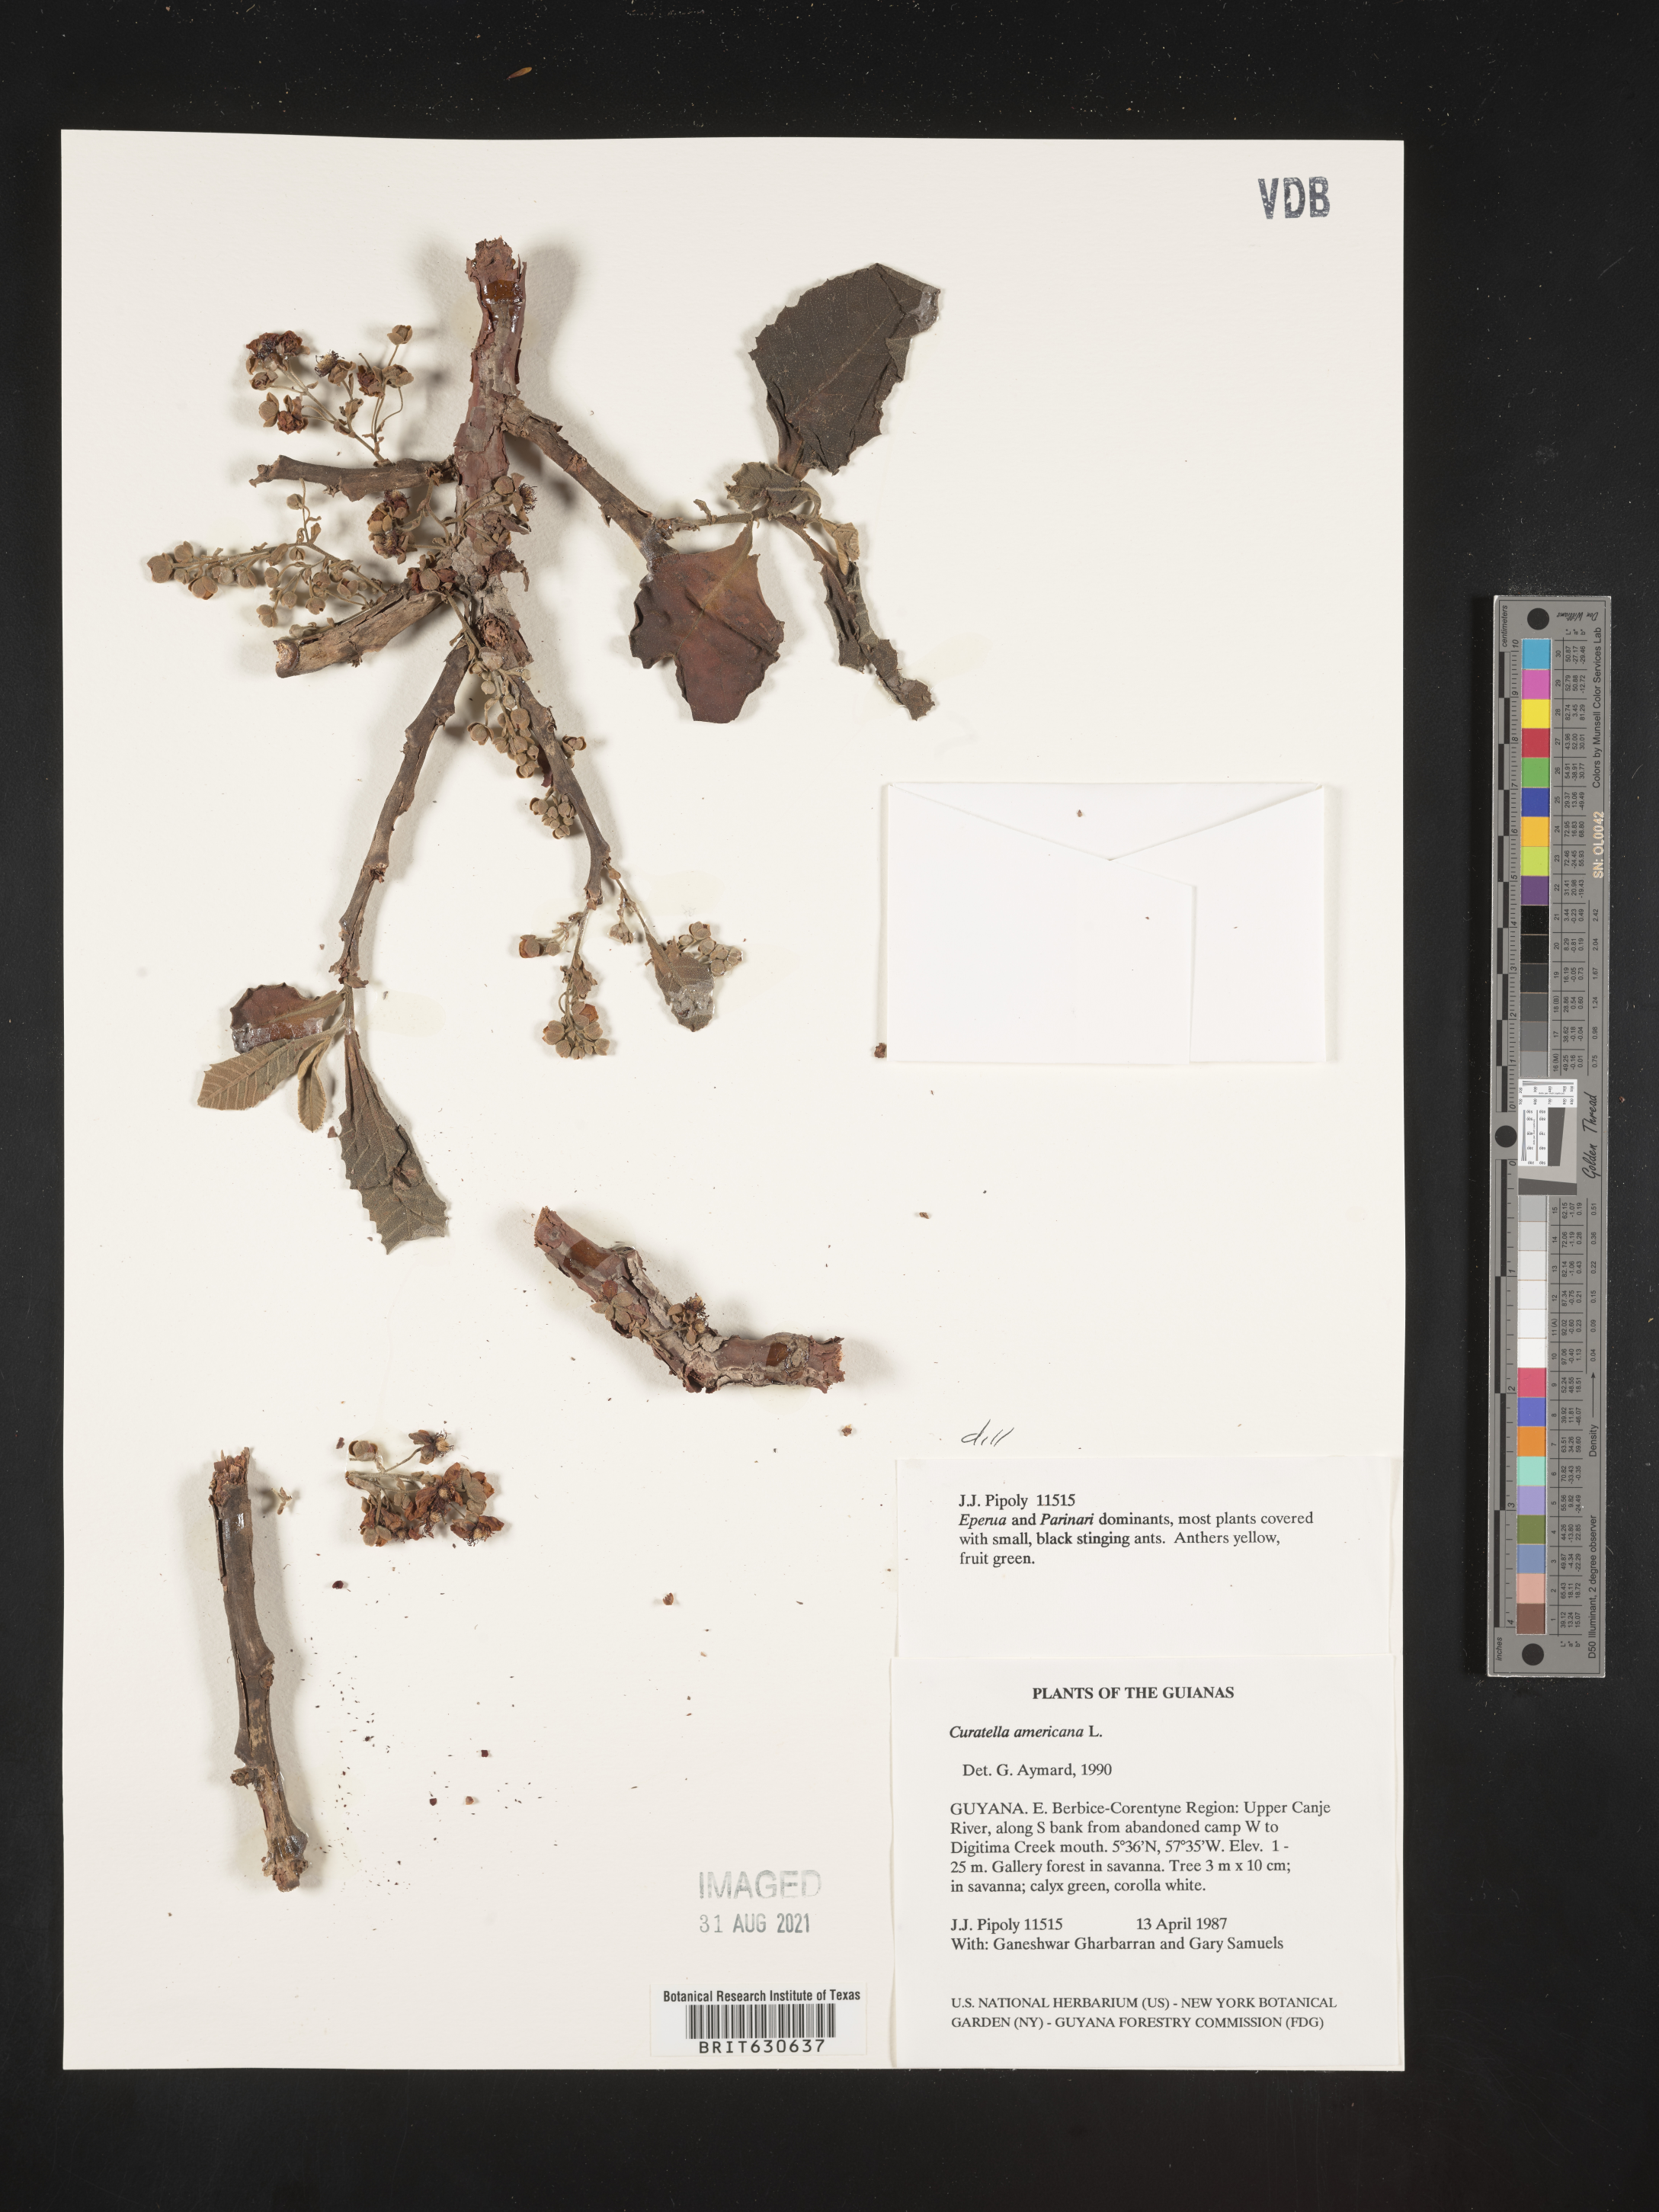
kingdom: Plantae
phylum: Tracheophyta
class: Magnoliopsida
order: Dilleniales
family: Dilleniaceae
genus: Curatella
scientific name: Curatella
